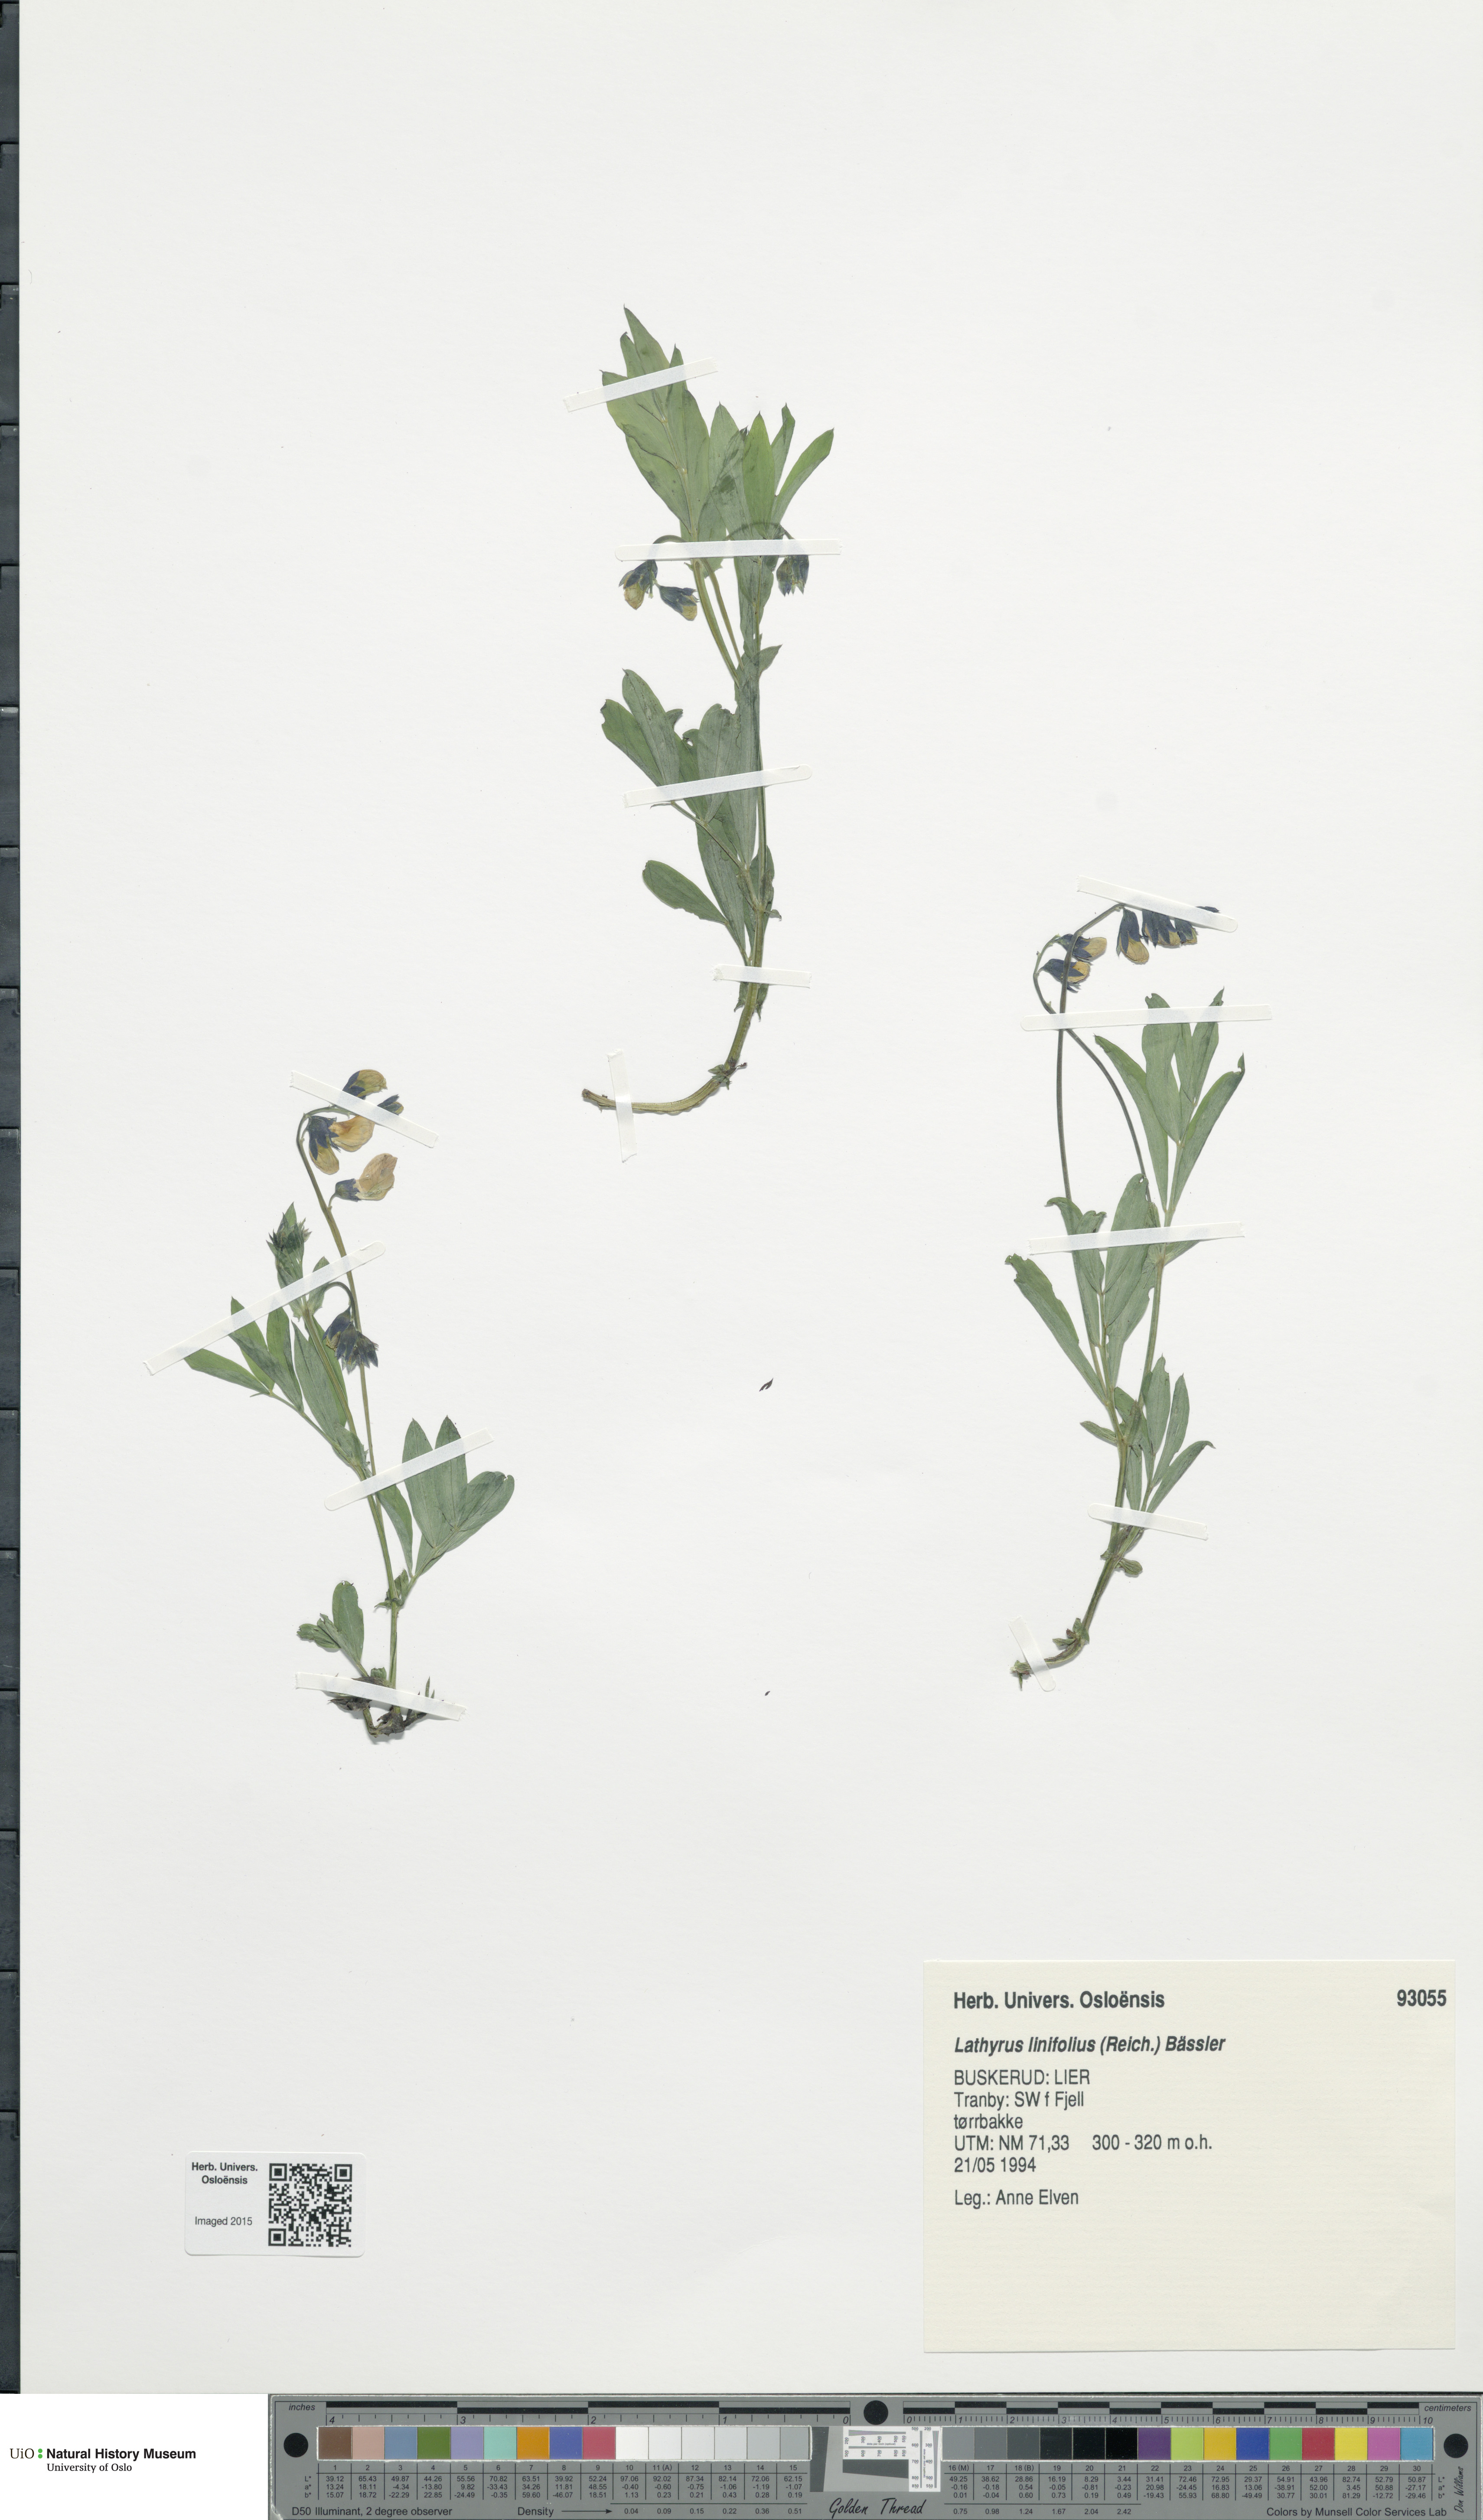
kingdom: Plantae
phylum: Tracheophyta
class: Magnoliopsida
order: Fabales
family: Fabaceae
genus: Lathyrus
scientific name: Lathyrus linifolius
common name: Bitter-vetch
